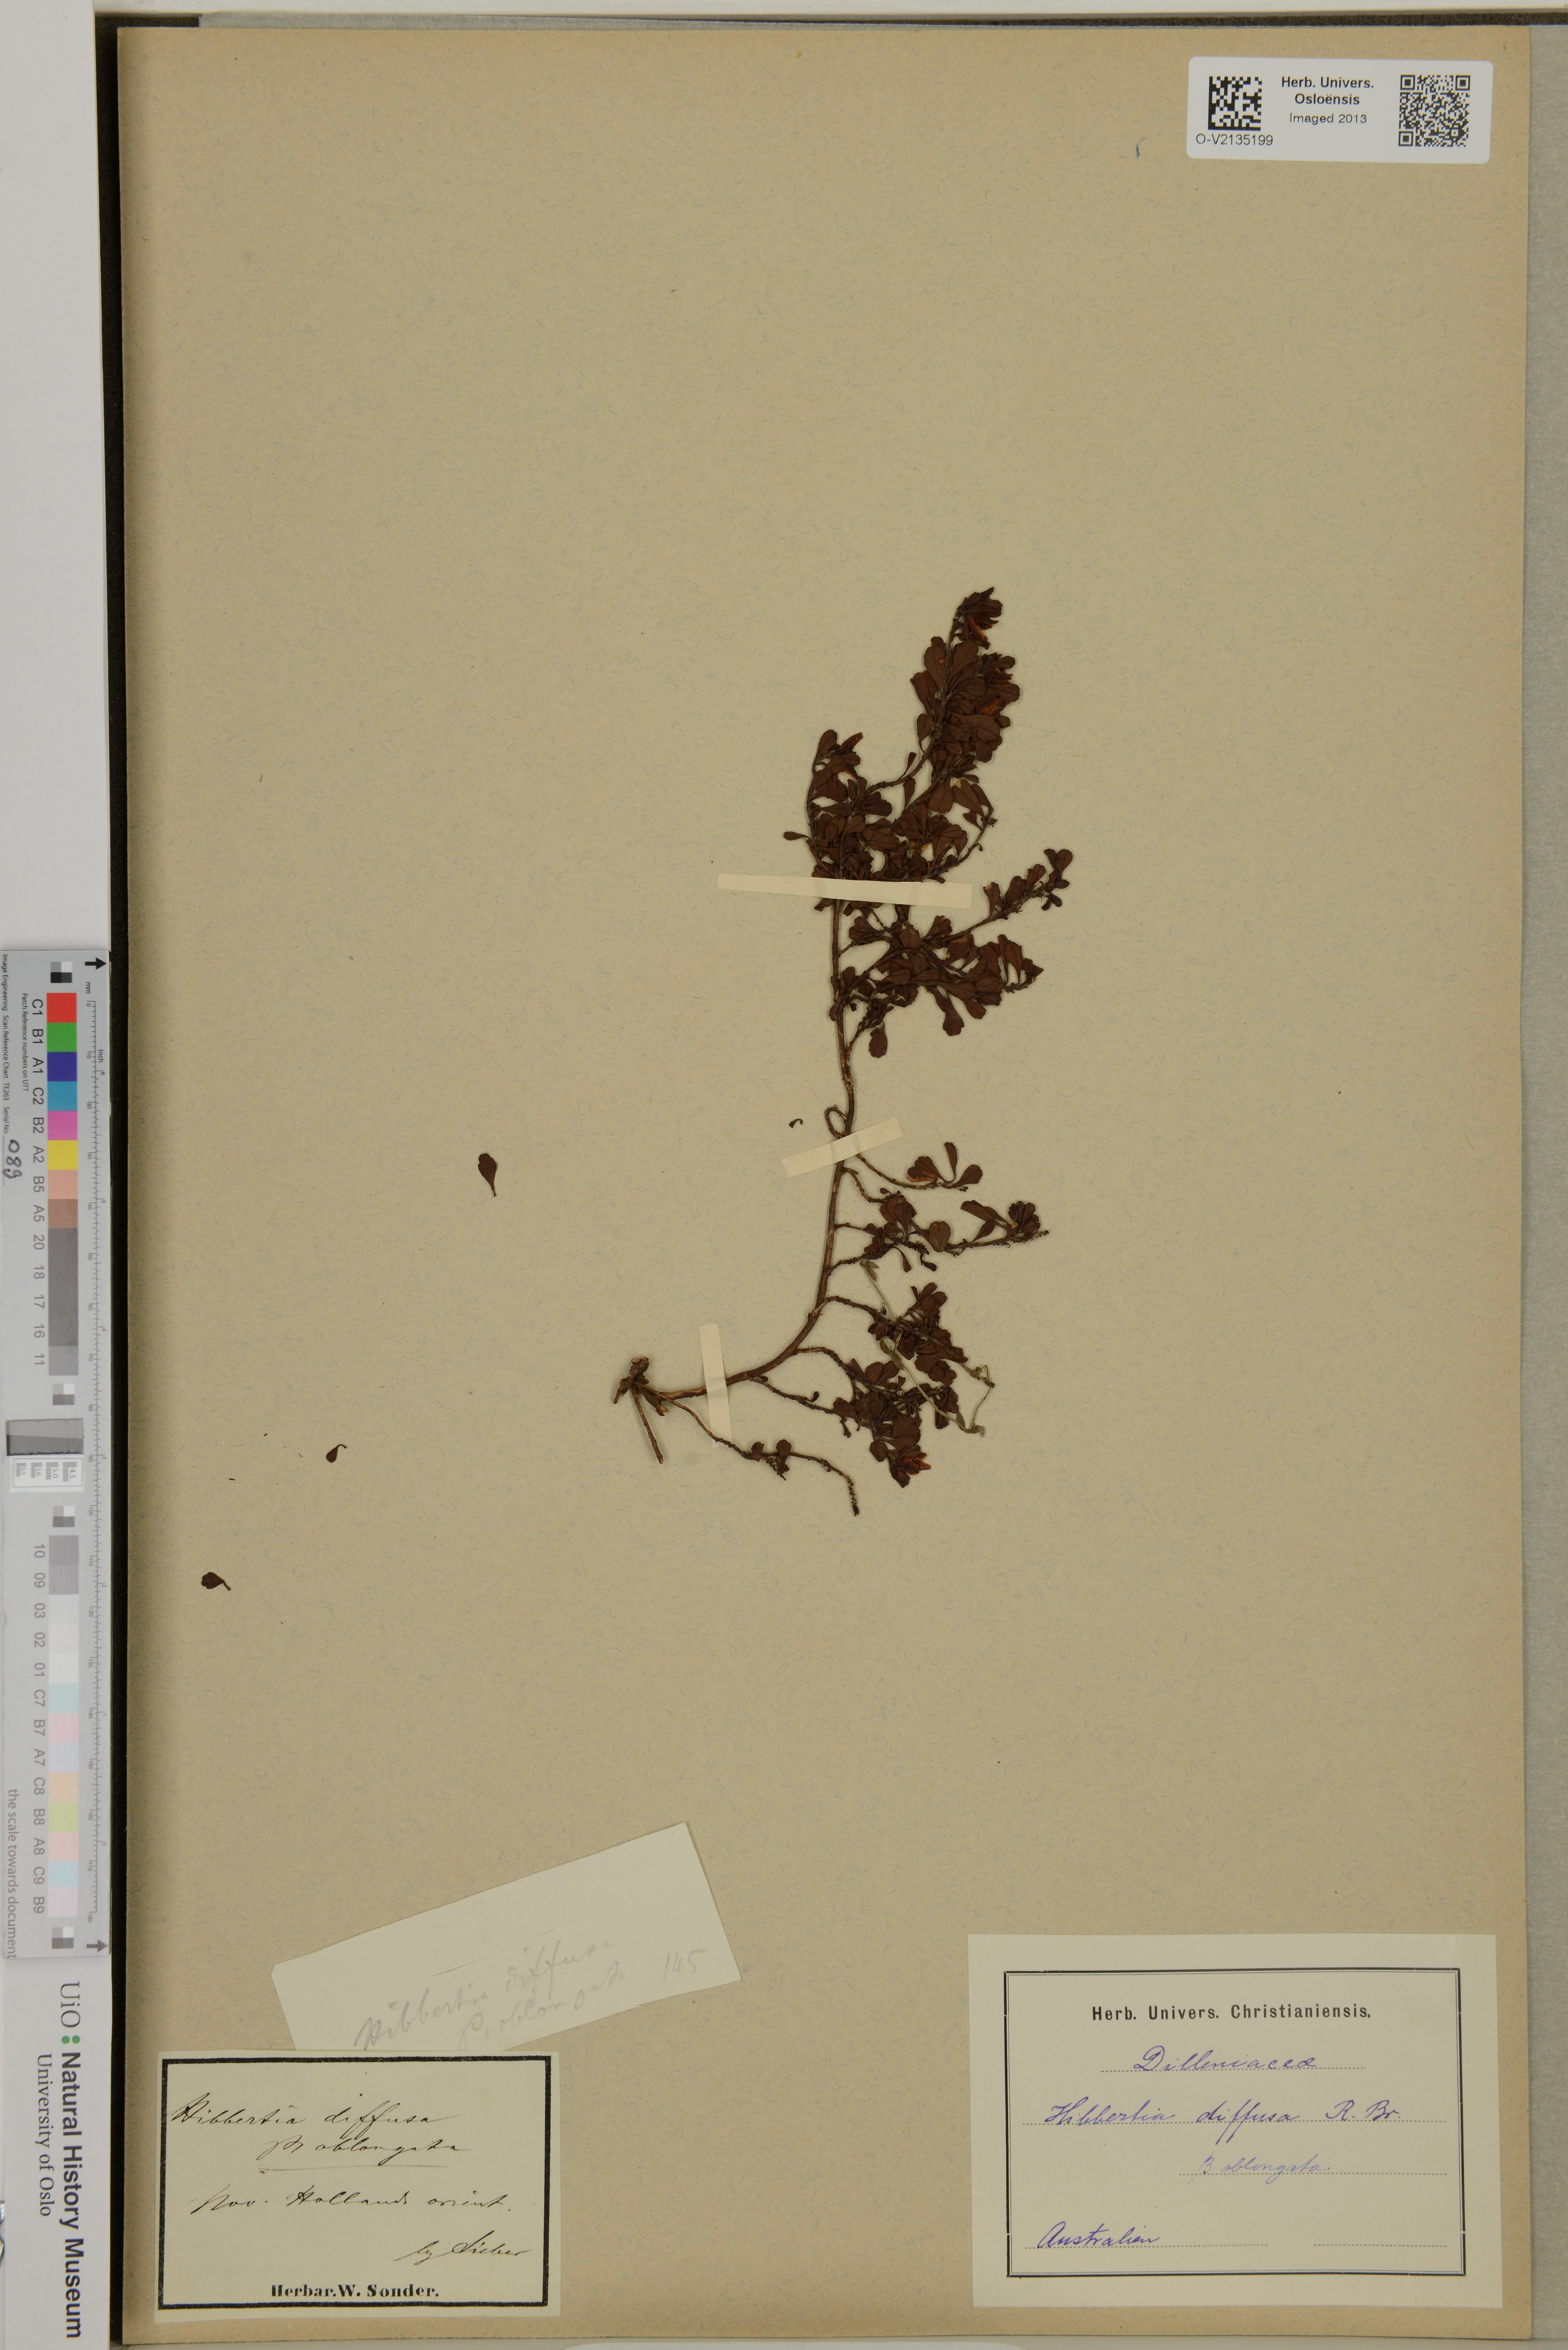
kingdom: Plantae
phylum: Tracheophyta
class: Magnoliopsida
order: Dilleniales
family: Dilleniaceae
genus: Hibbertia
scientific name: Hibbertia diffusa
